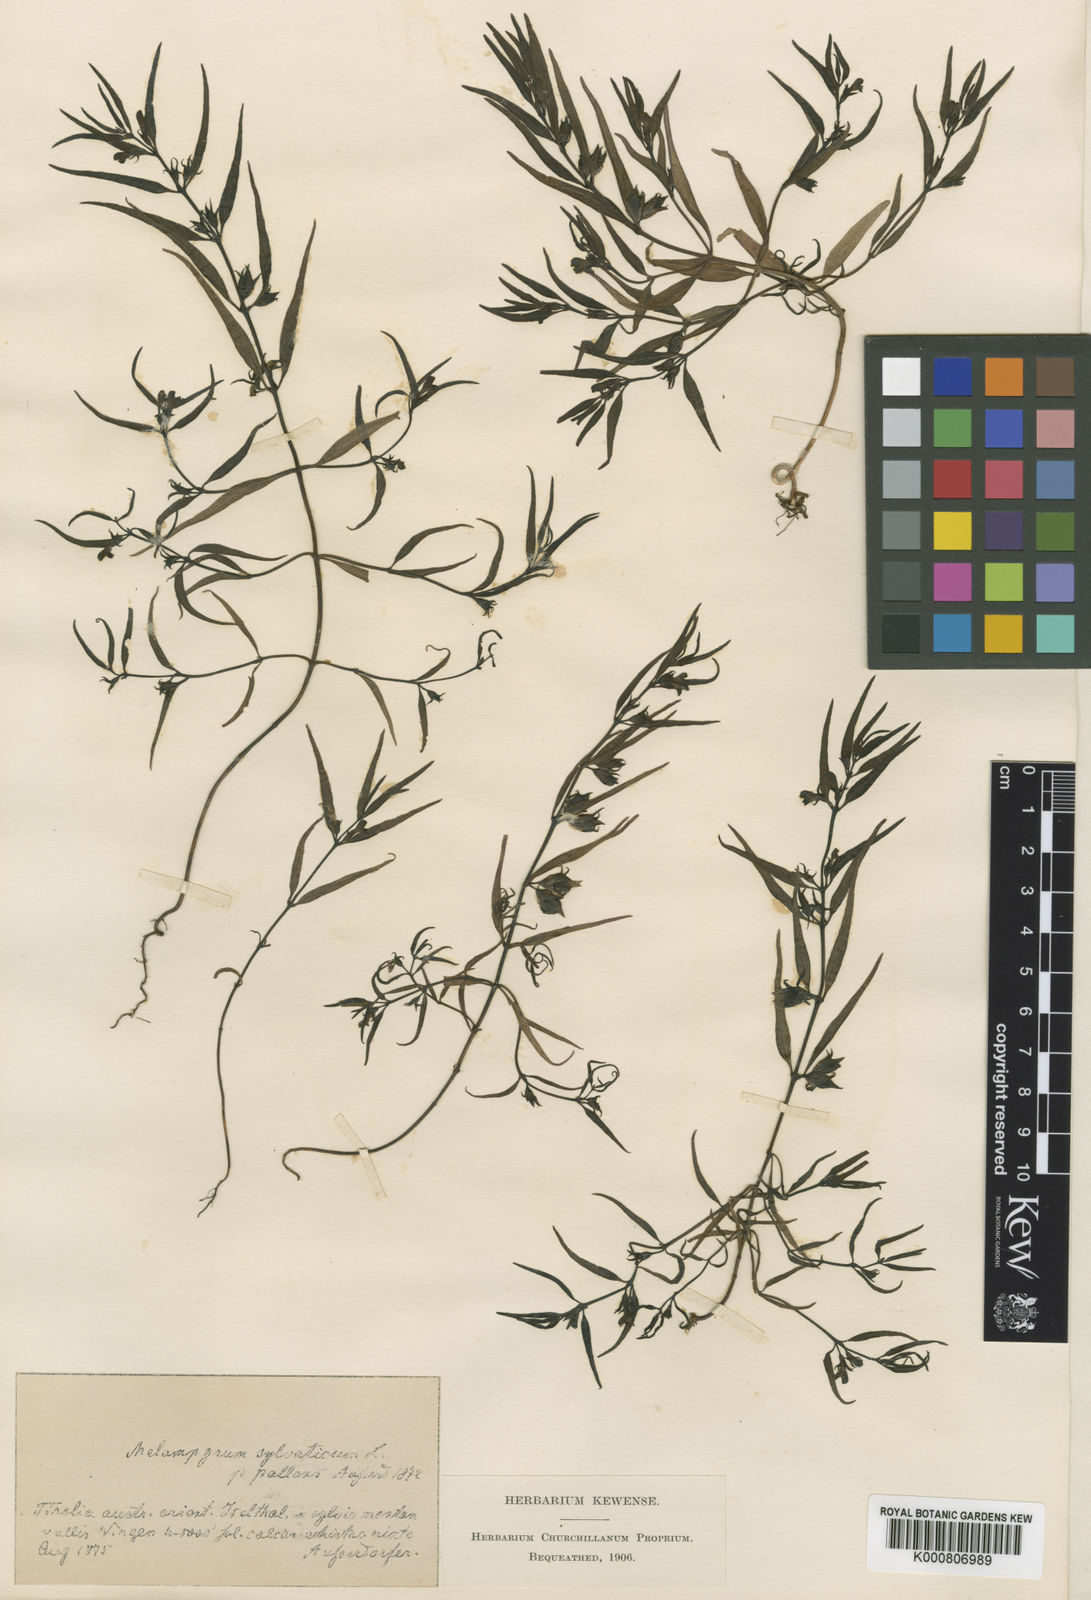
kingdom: Plantae
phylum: Tracheophyta
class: Magnoliopsida
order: Lamiales
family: Orobanchaceae
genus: Melampyrum
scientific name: Melampyrum saxosum
